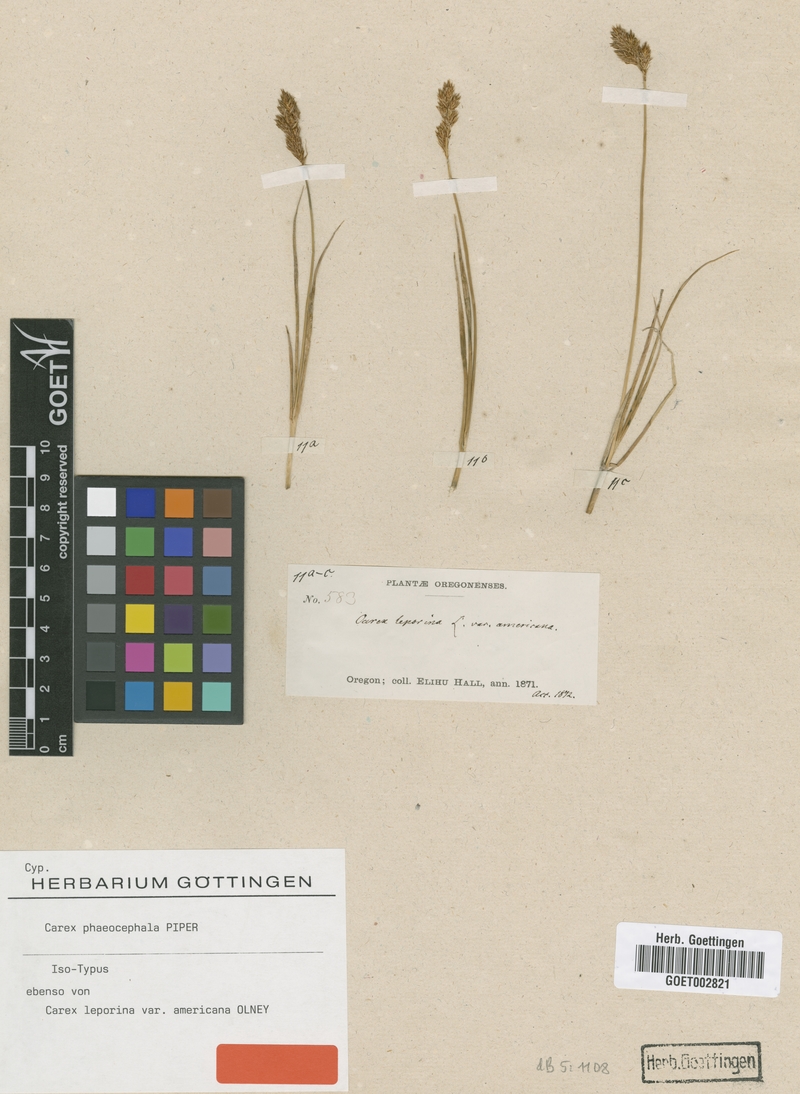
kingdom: Plantae
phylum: Tracheophyta
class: Liliopsida
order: Poales
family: Cyperaceae
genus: Carex
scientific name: Carex phaeocephala
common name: Brown-head sedge
